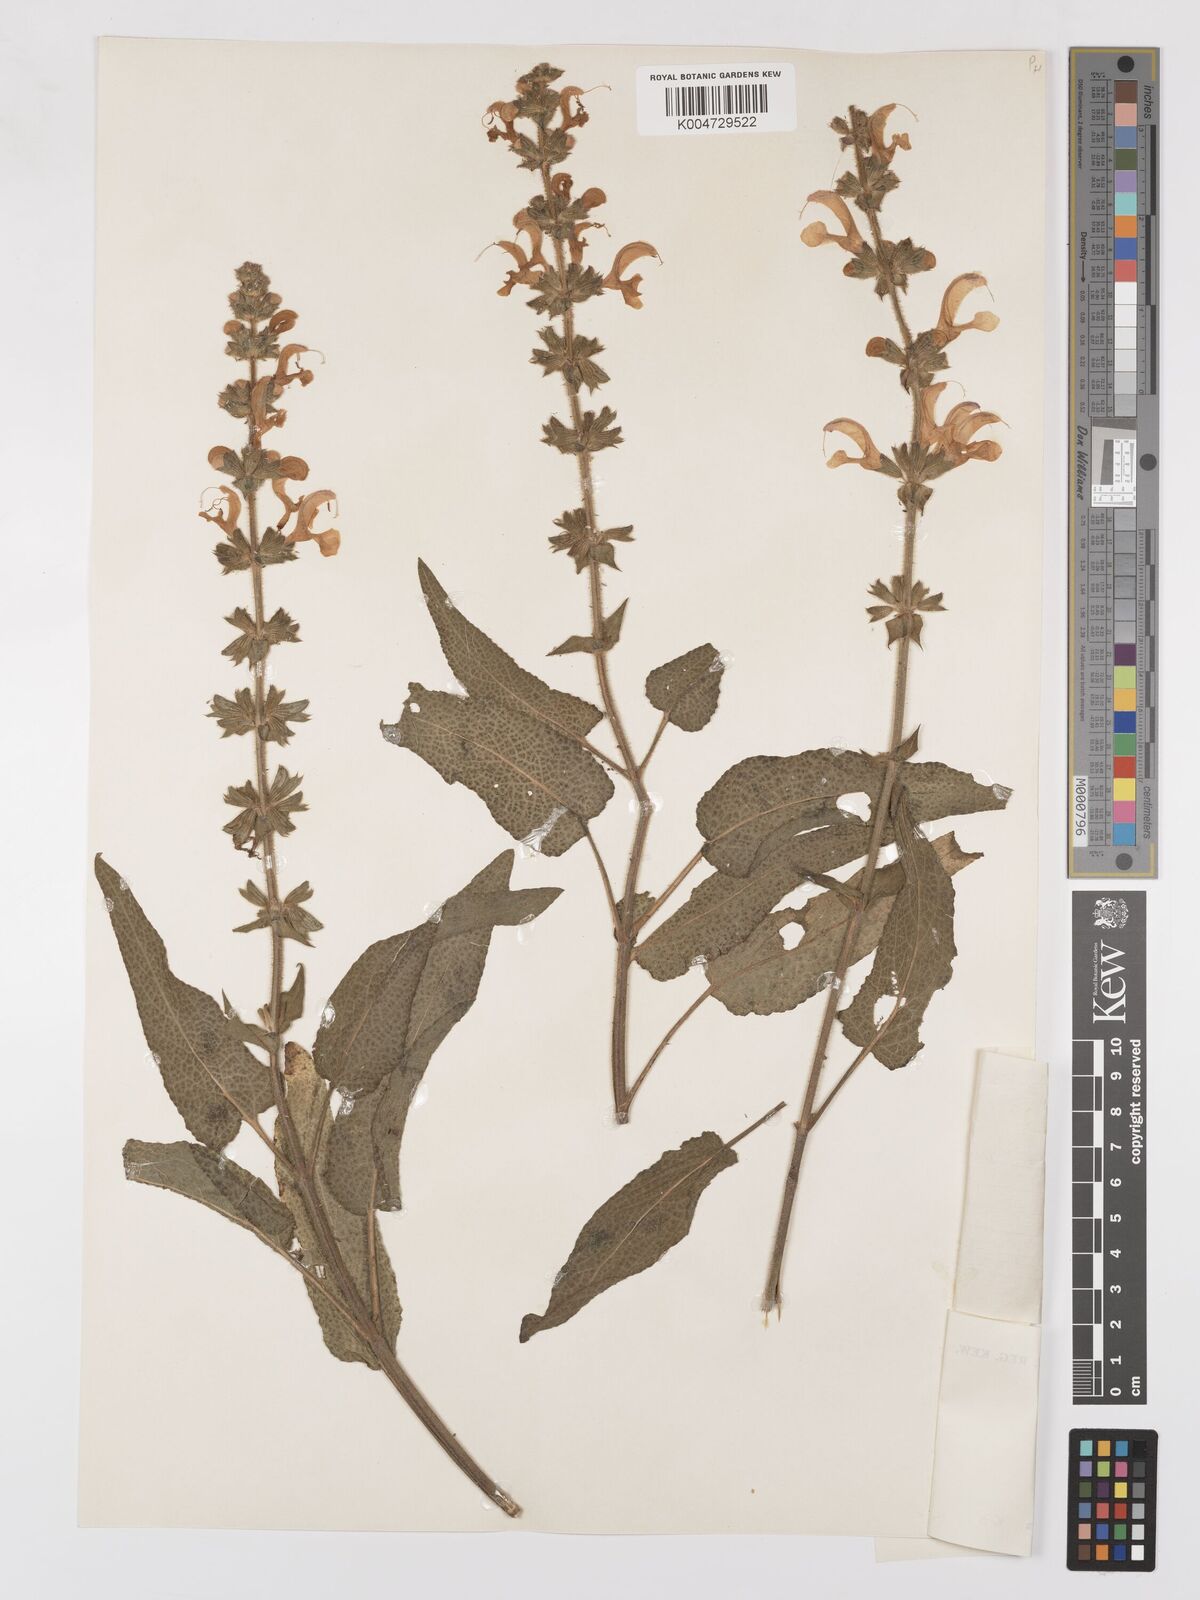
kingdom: Plantae
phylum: Tracheophyta
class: Magnoliopsida
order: Lamiales
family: Lamiaceae
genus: Salvia
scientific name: Salvia
